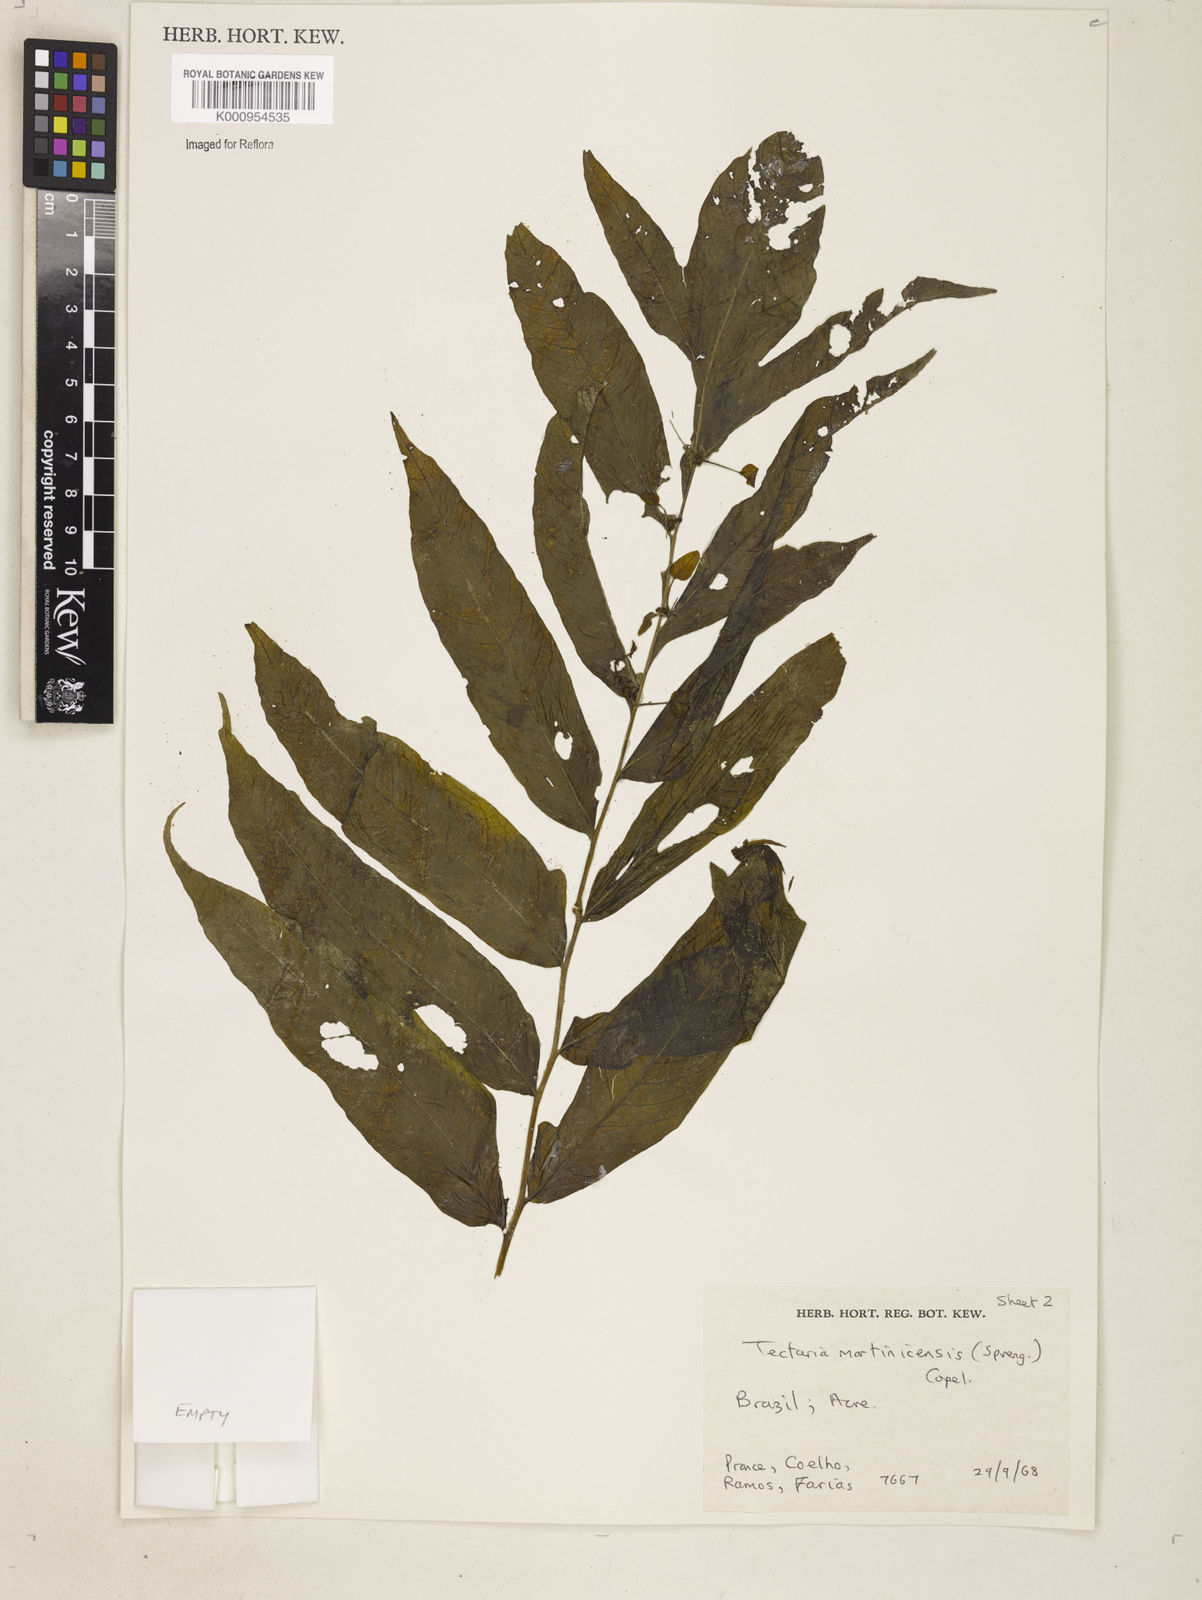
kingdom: Plantae
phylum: Tracheophyta
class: Polypodiopsida
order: Polypodiales
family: Tectariaceae
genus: Tectaria
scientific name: Tectaria incisa
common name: Incised halberd fern
